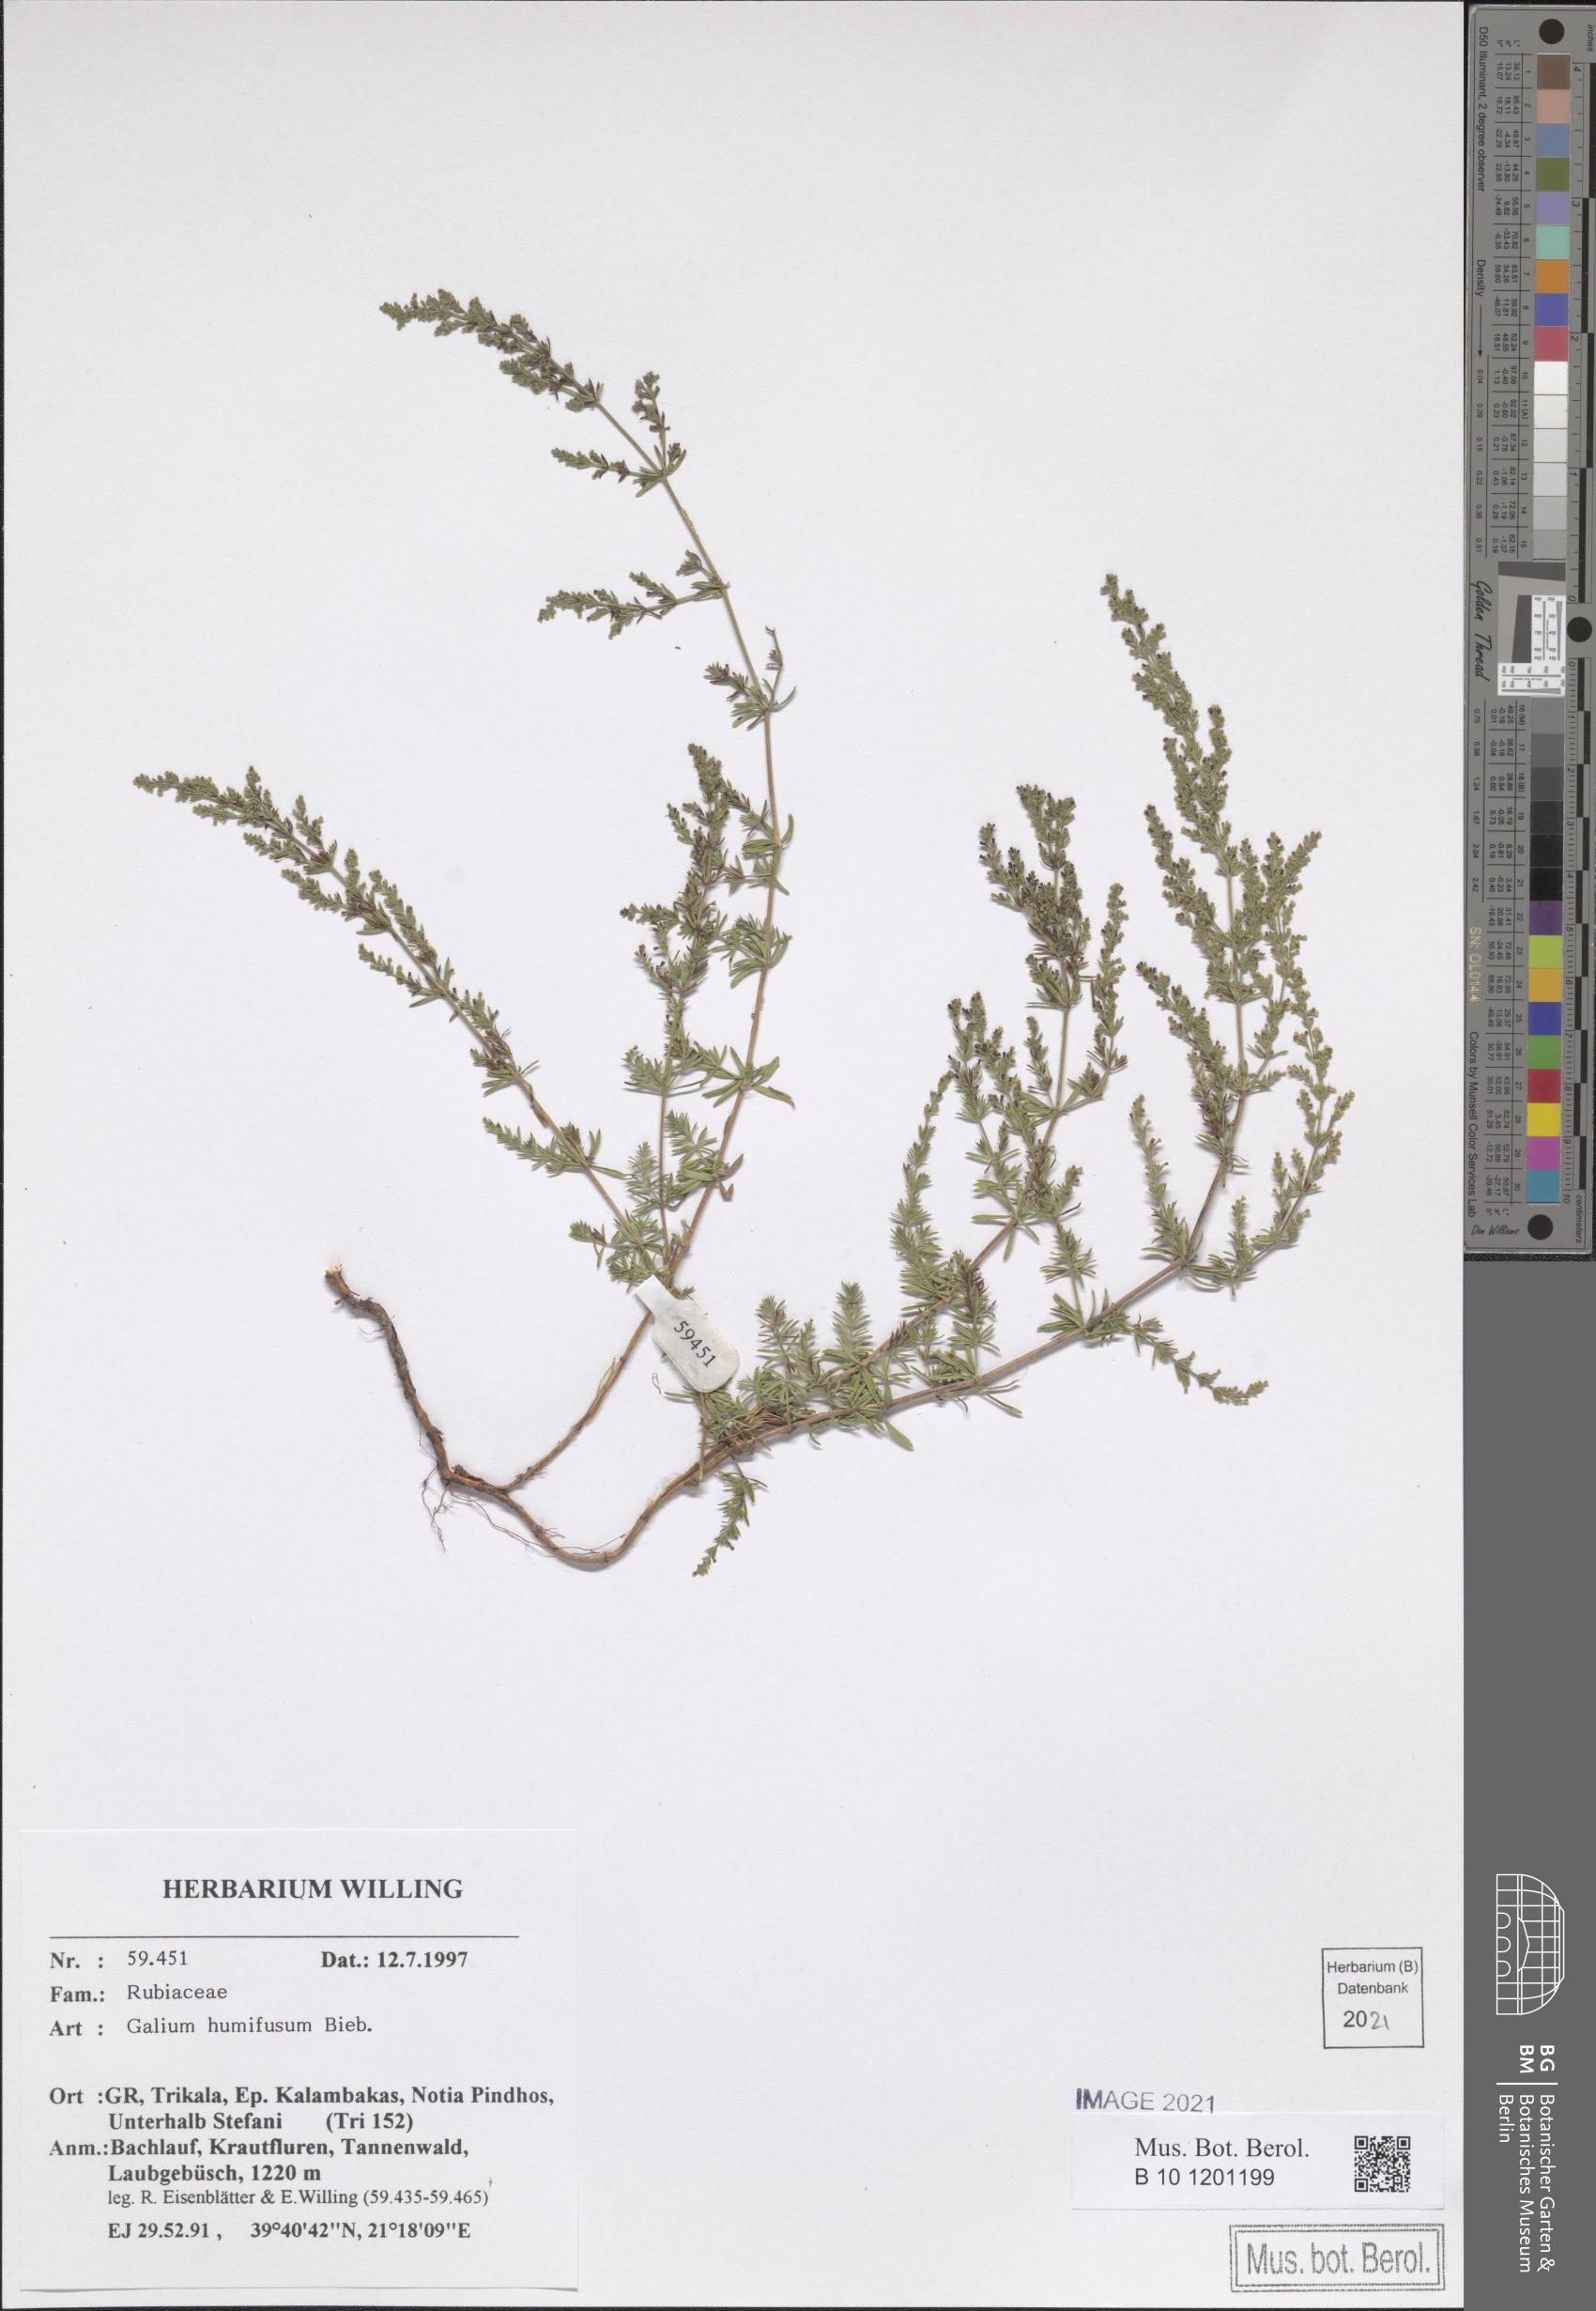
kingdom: Plantae
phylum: Tracheophyta
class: Magnoliopsida
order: Gentianales
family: Rubiaceae
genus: Galium
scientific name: Galium humifusum
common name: Spreading bedstraw
